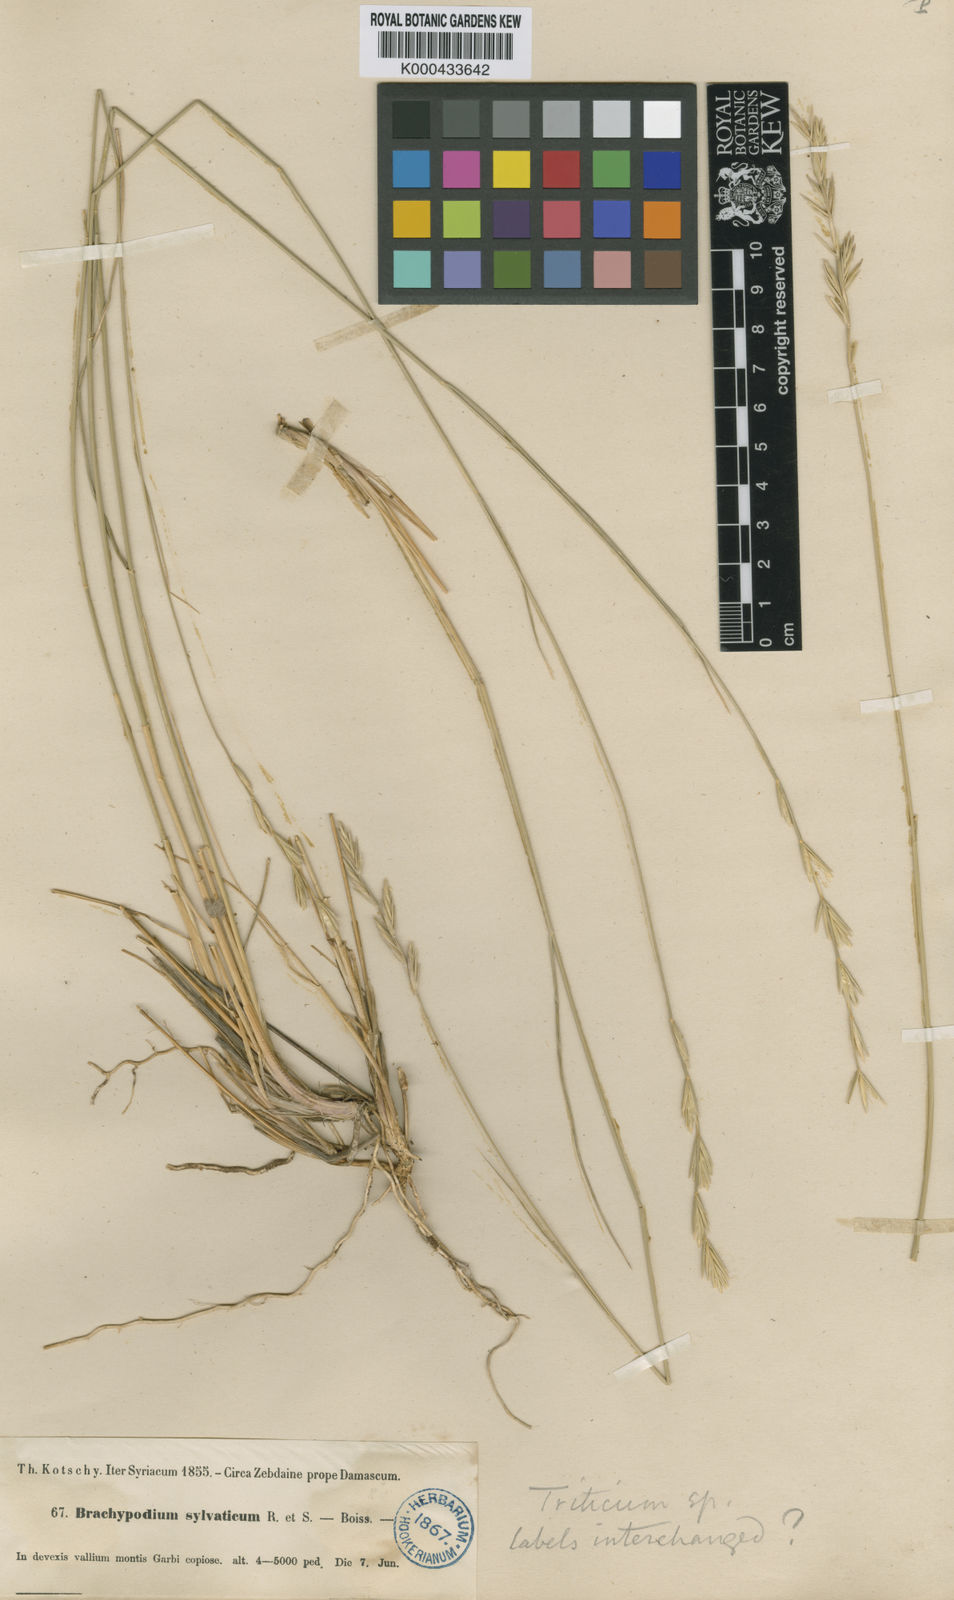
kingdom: Plantae
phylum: Tracheophyta
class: Liliopsida
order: Poales
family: Poaceae
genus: Pseudoroegneria
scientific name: Pseudoroegneria libanotica
